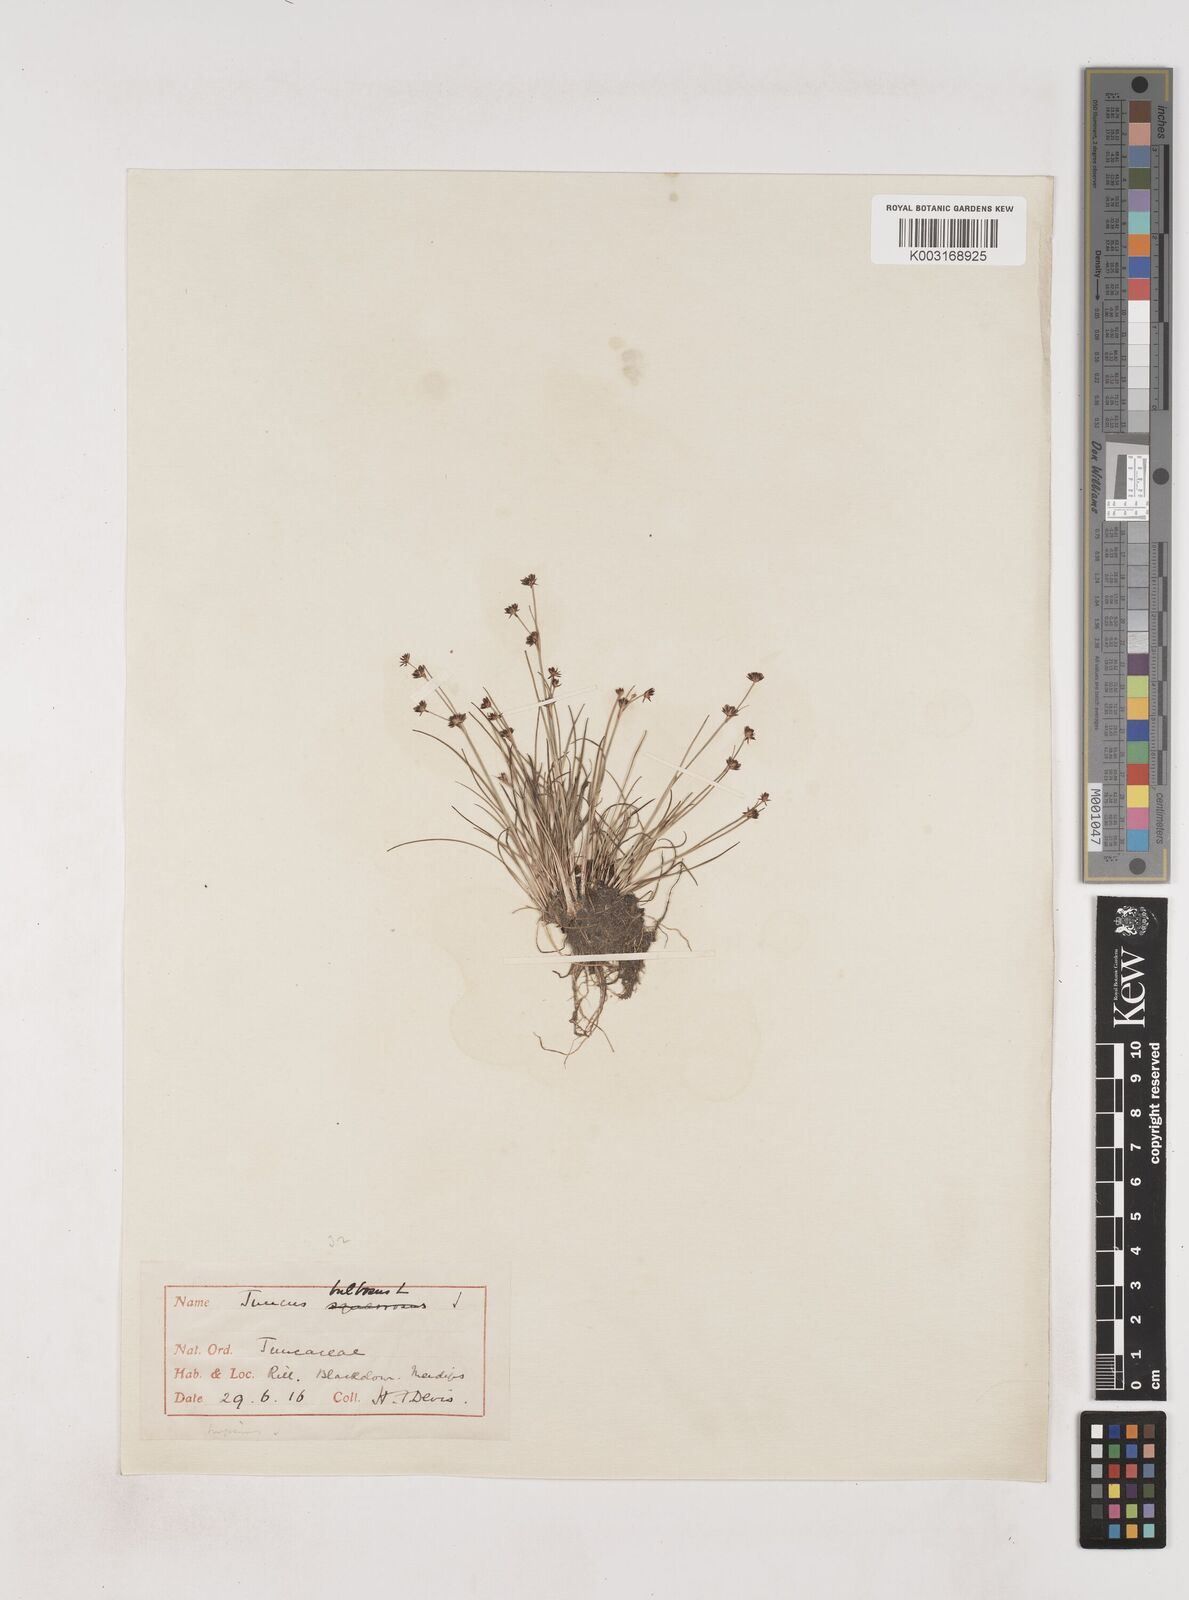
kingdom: Plantae
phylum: Tracheophyta
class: Liliopsida
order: Poales
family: Juncaceae
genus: Juncus
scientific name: Juncus bulbosus
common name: Bulbous rush
